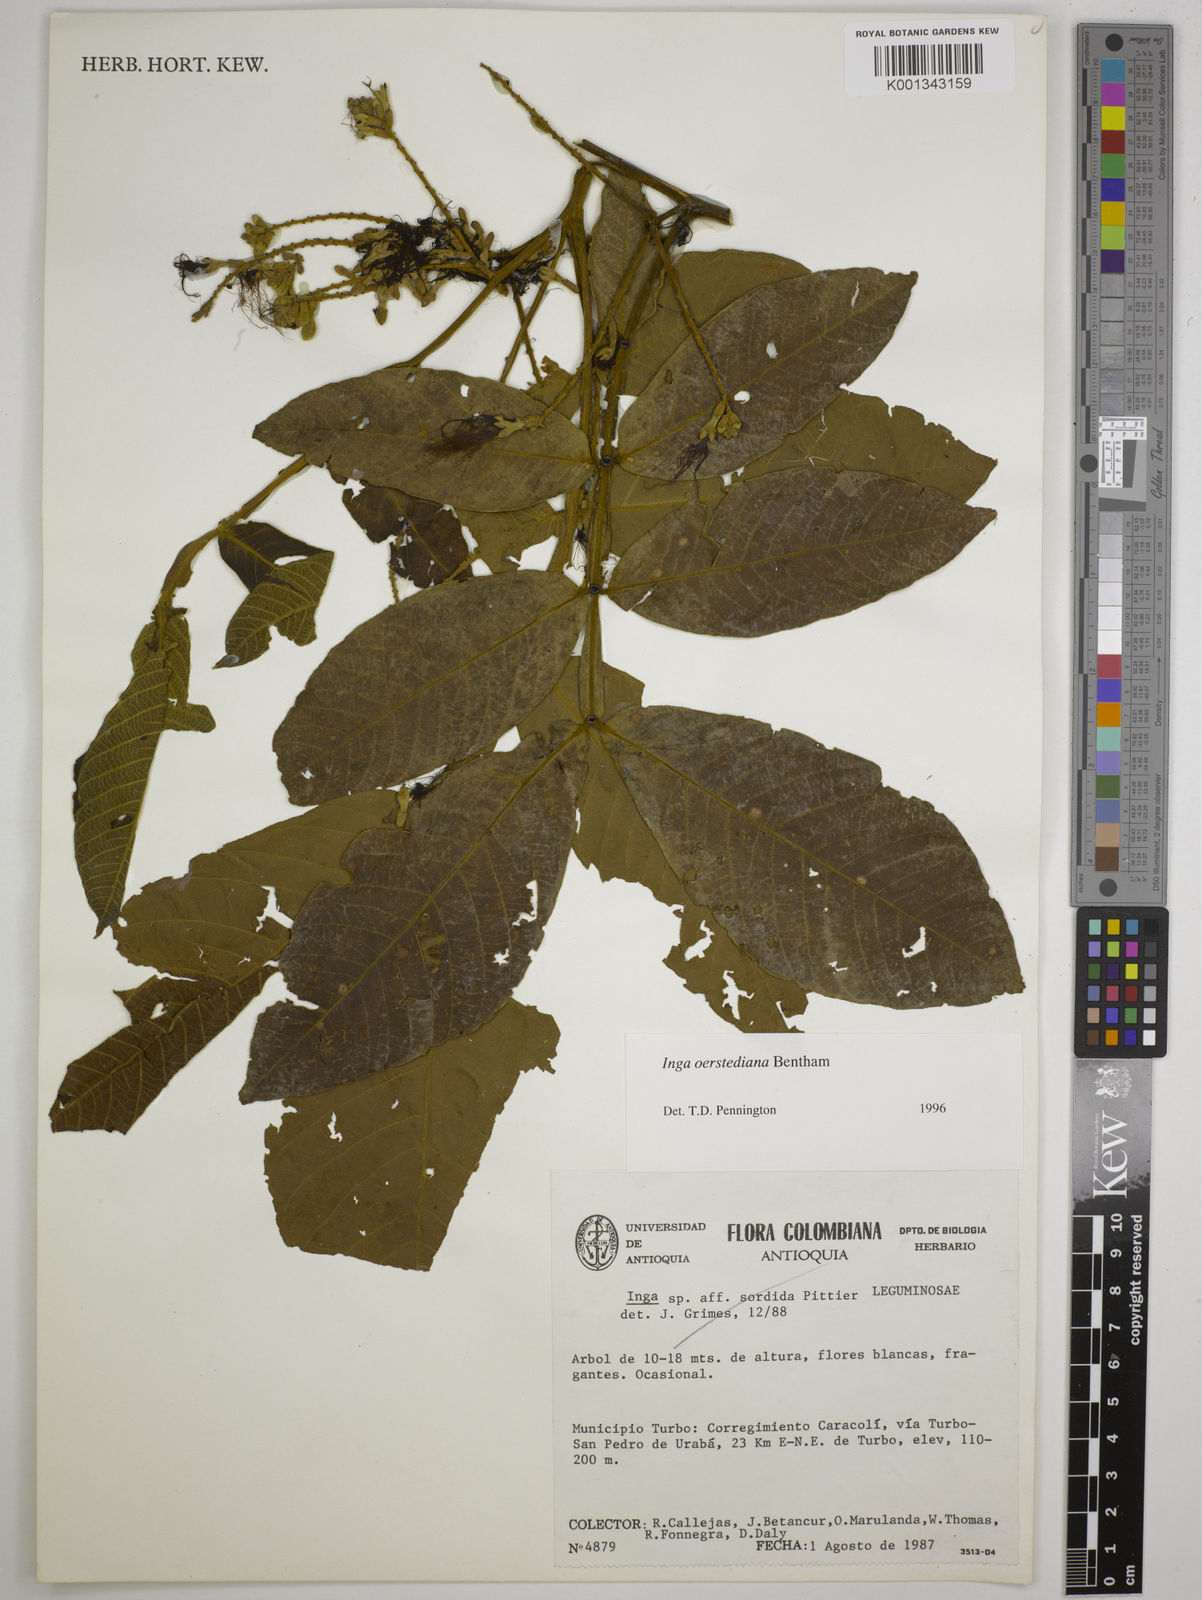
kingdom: Plantae
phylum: Tracheophyta
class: Magnoliopsida
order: Fabales
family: Fabaceae
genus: Inga
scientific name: Inga oerstediana
